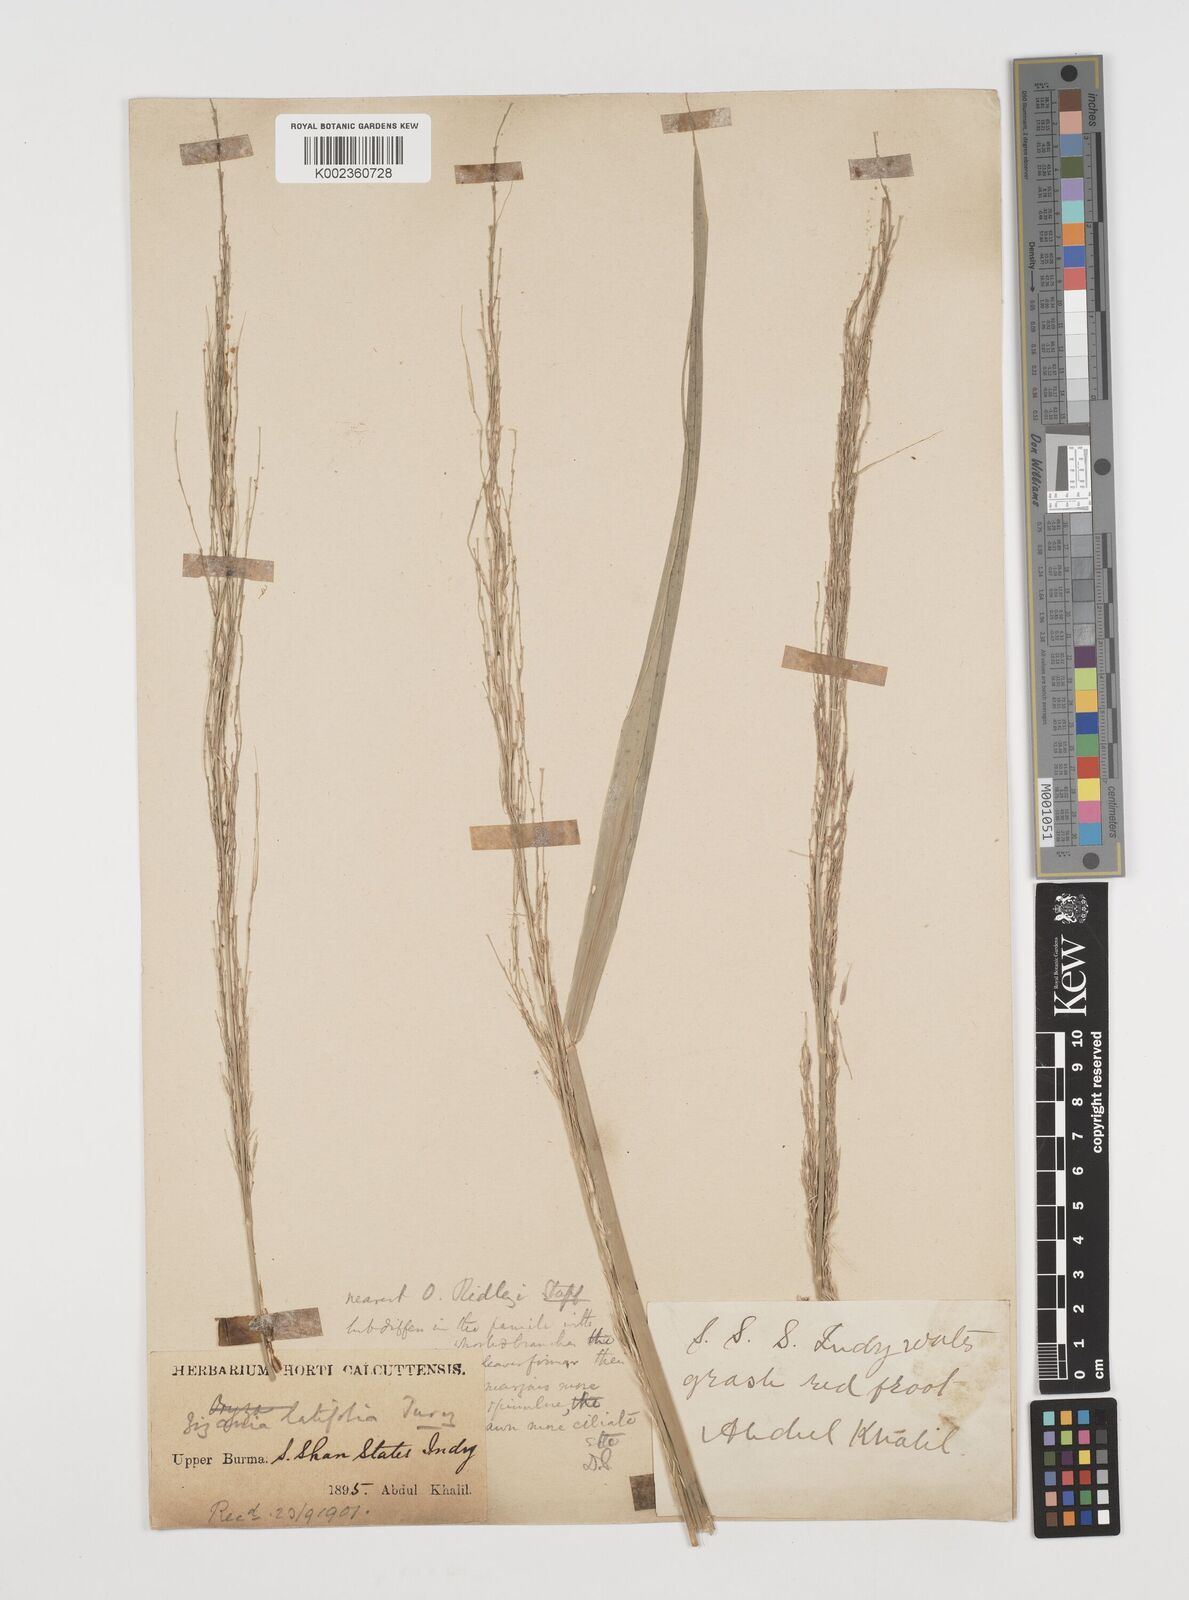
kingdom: Plantae
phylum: Tracheophyta
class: Liliopsida
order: Poales
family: Poaceae
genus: Zizania
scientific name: Zizania latifolia
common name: Manchurian wildrice
